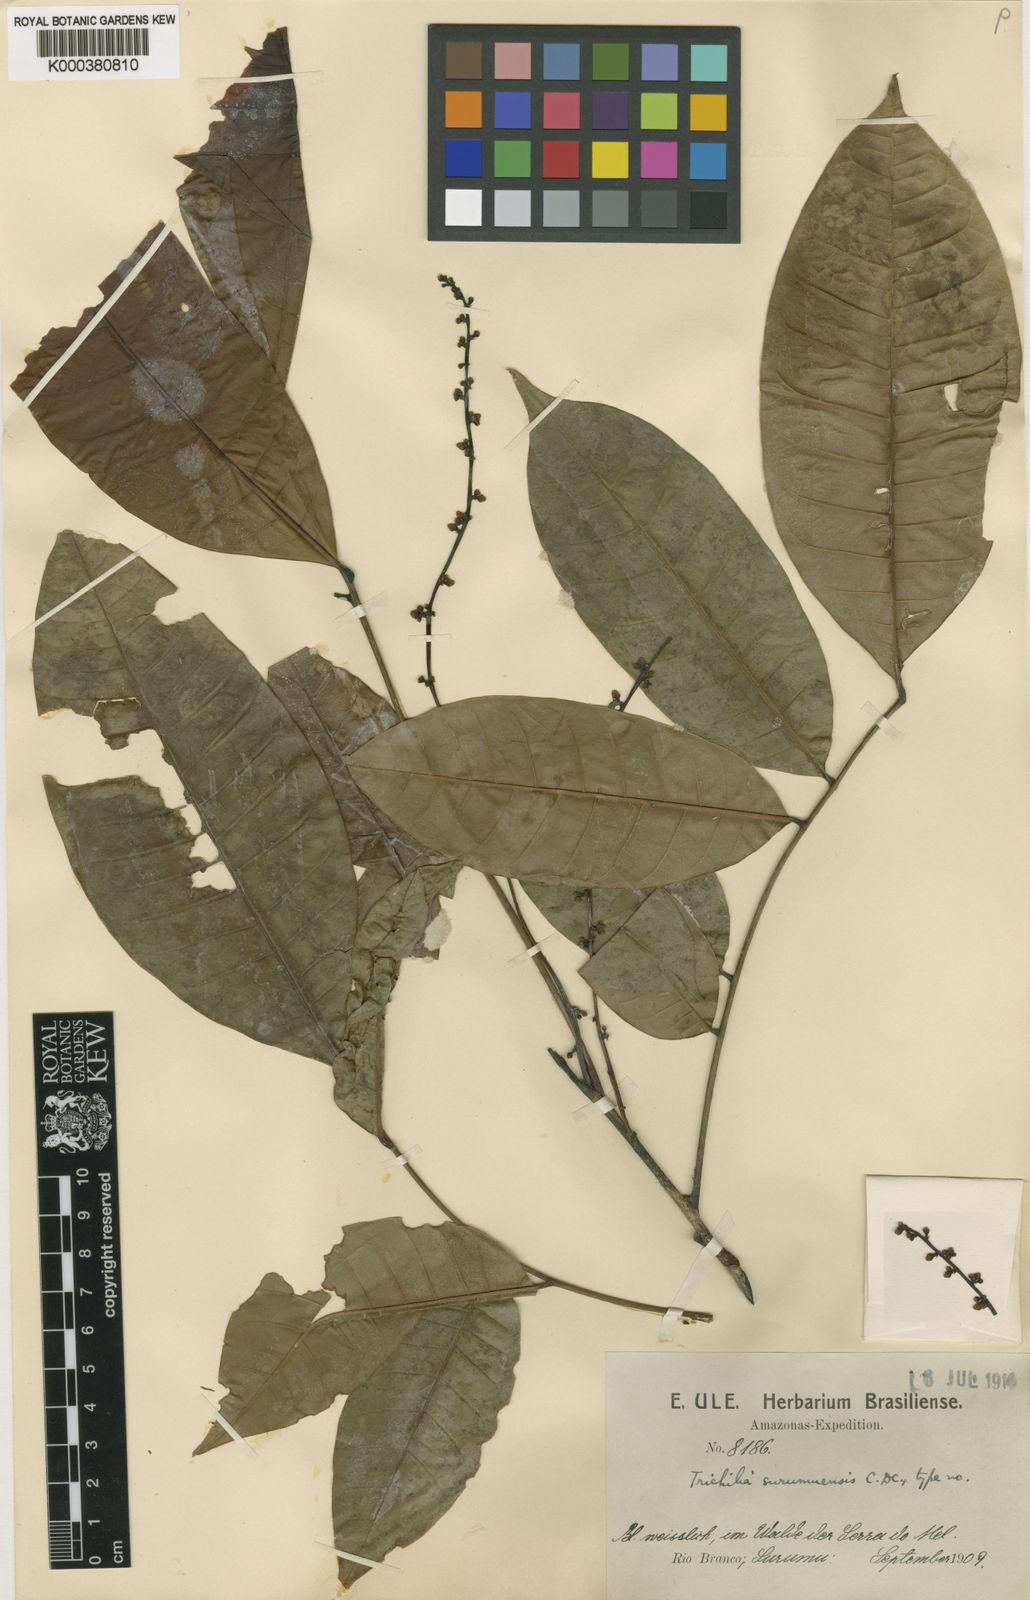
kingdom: Plantae
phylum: Tracheophyta
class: Magnoliopsida
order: Sapindales
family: Meliaceae
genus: Trichilia
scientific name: Trichilia surumuensis
